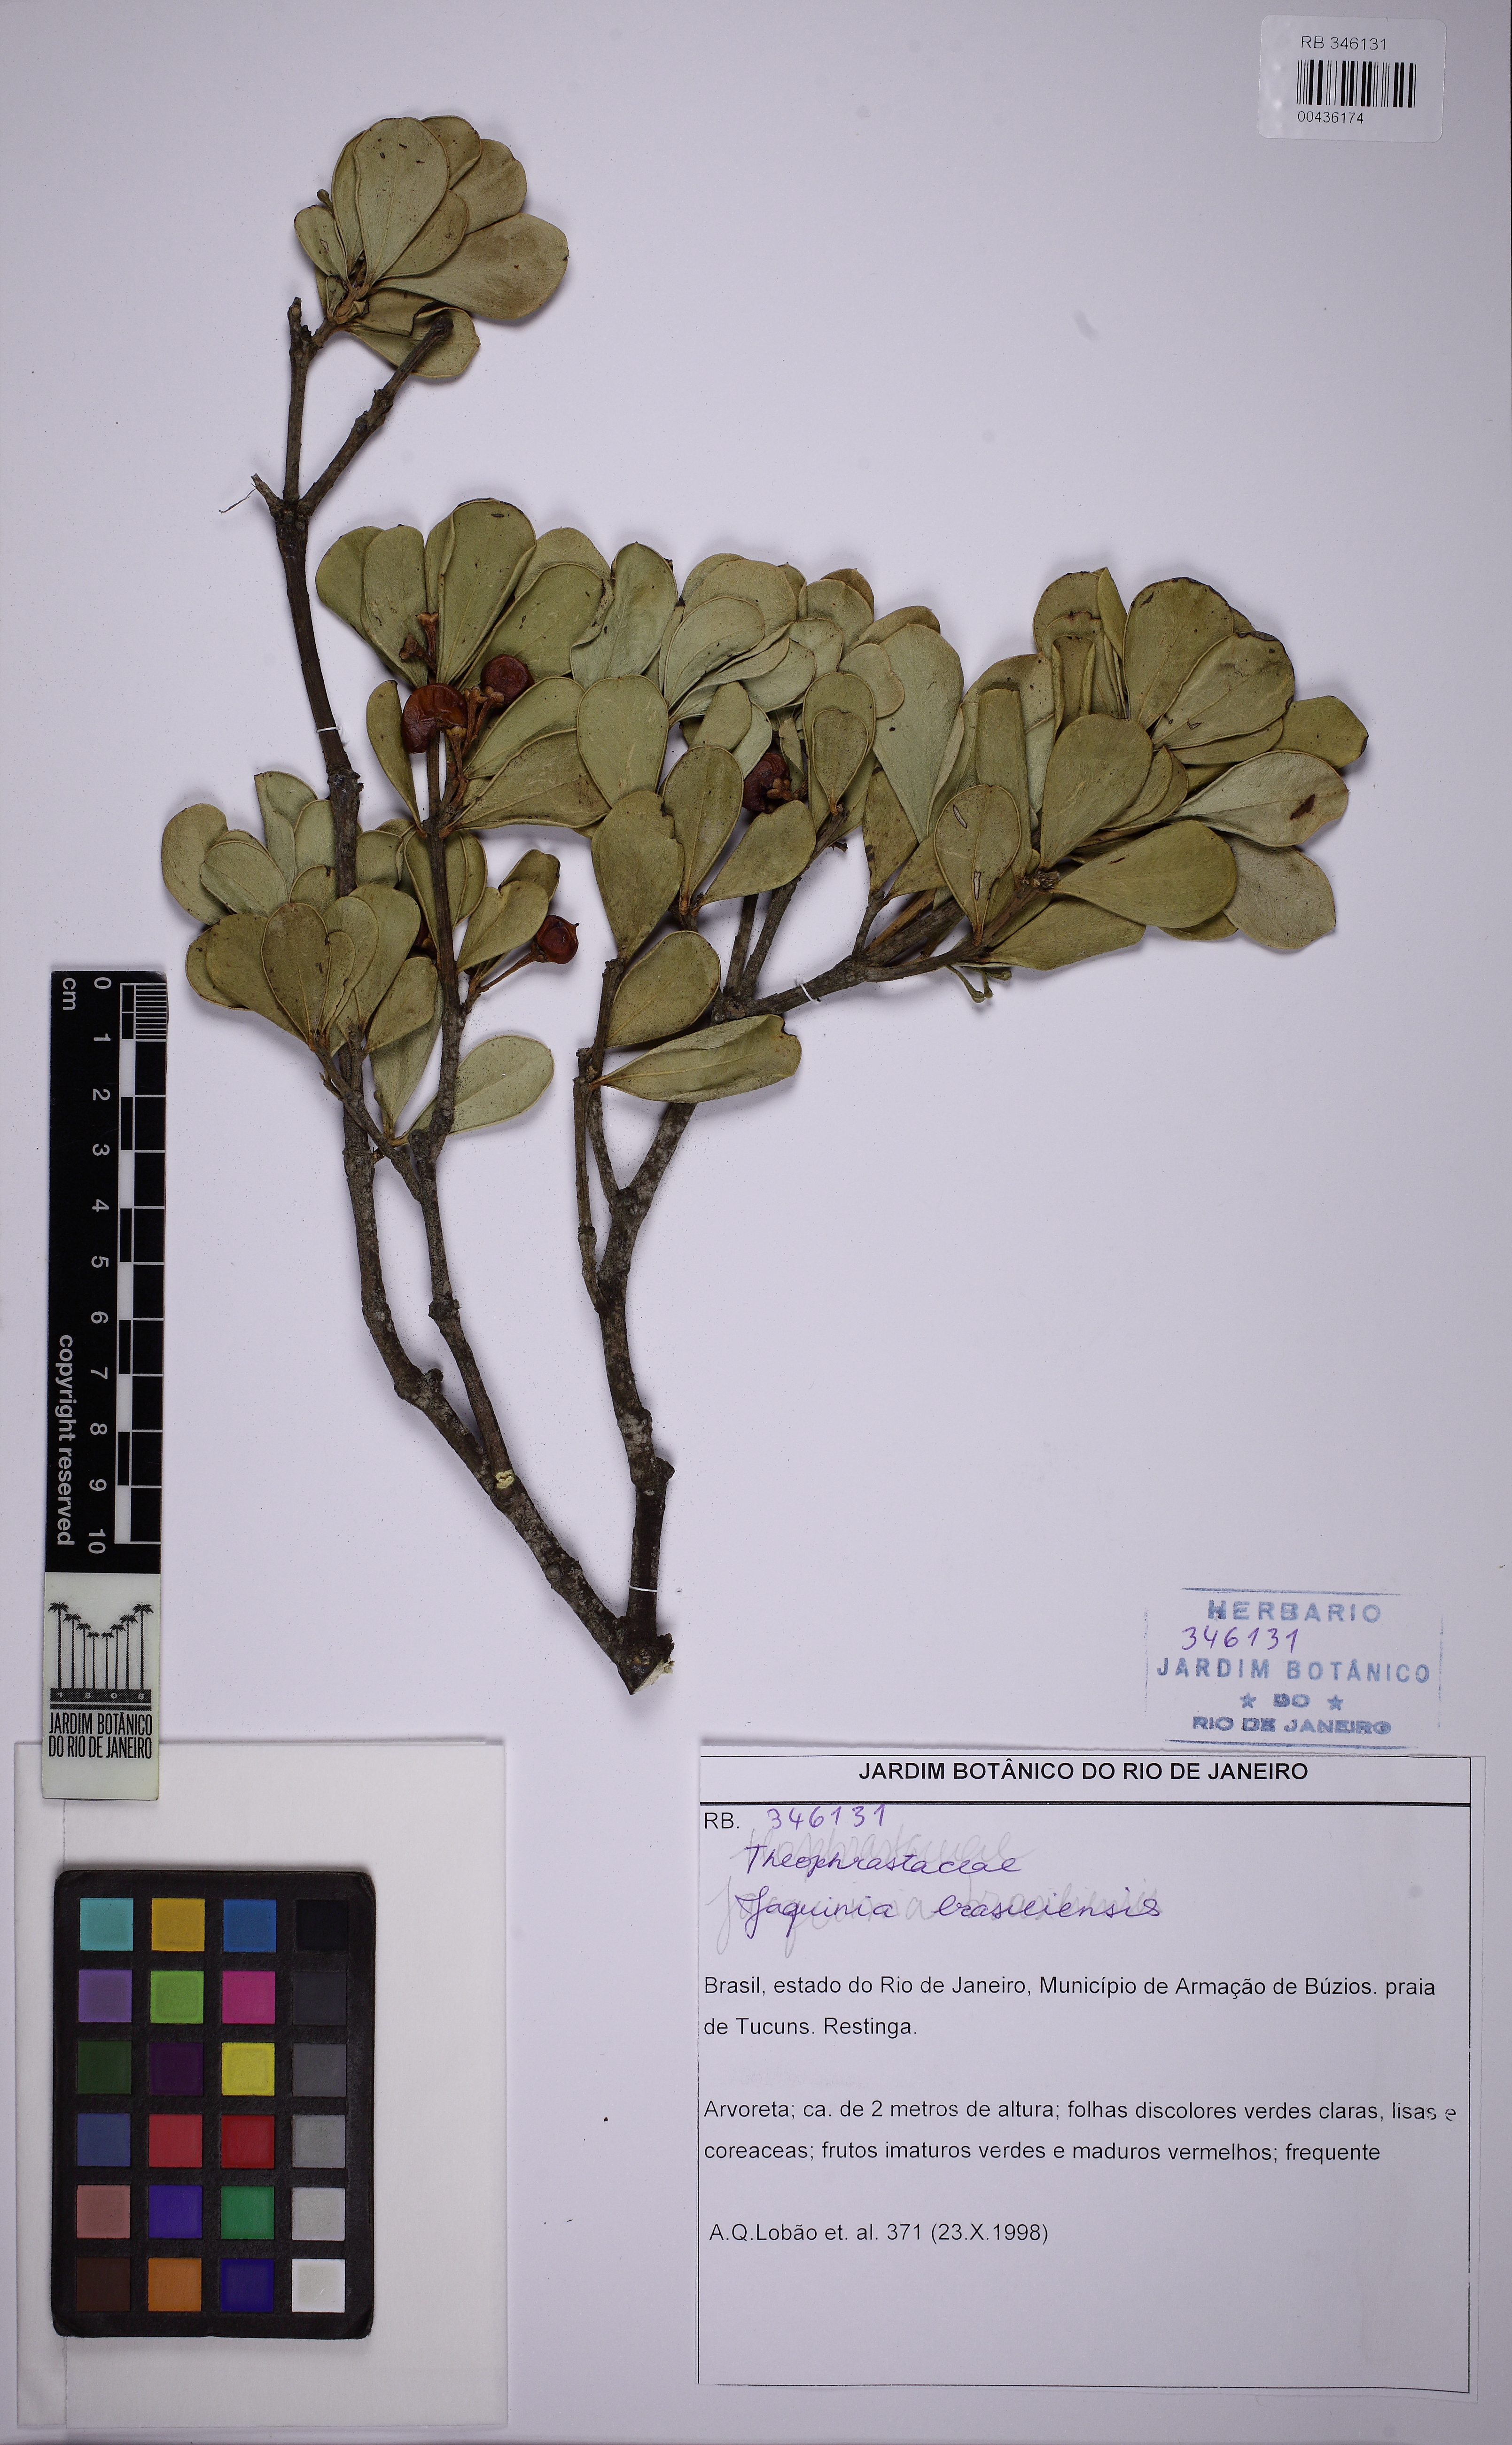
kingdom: Plantae
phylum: Tracheophyta
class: Magnoliopsida
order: Ericales
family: Primulaceae
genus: Jacquinia
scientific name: Jacquinia armillaris
